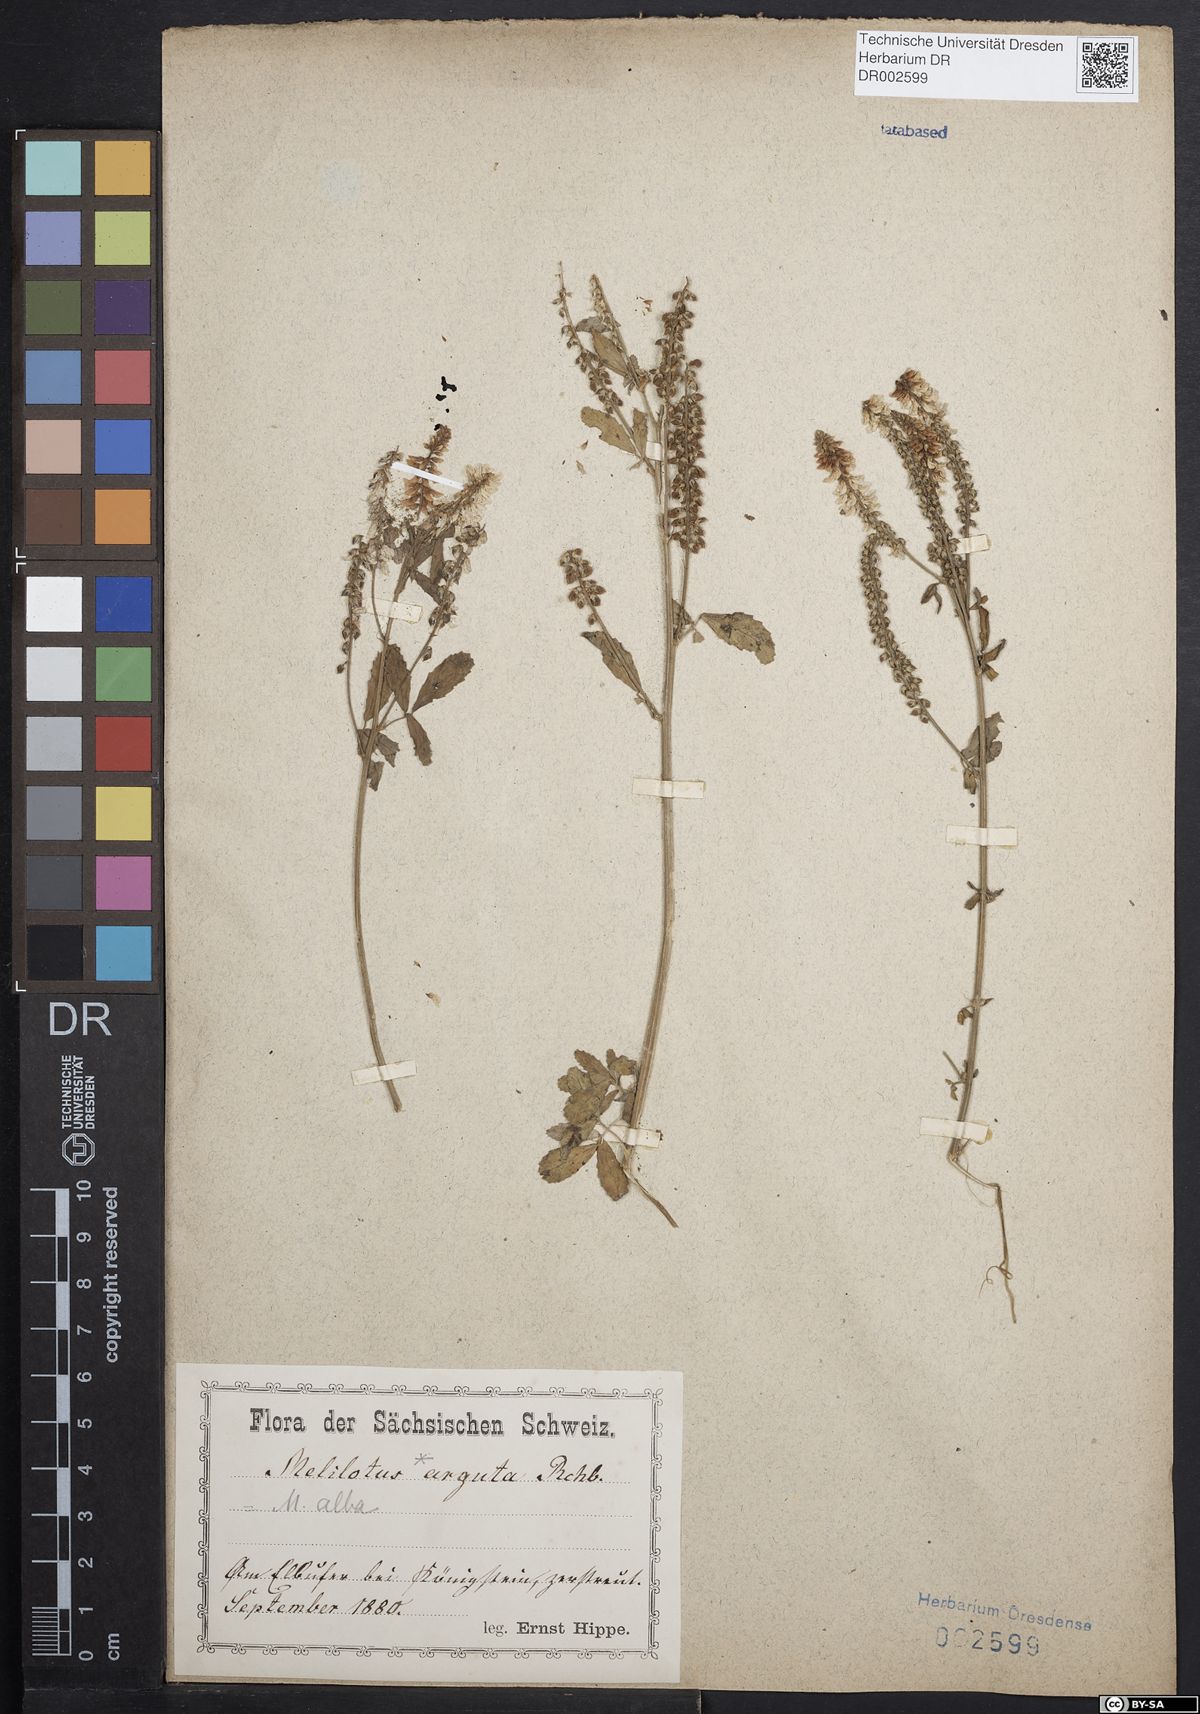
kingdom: Plantae
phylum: Tracheophyta
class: Magnoliopsida
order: Fabales
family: Fabaceae
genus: Melilotus
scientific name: Melilotus albus
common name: White melilot
